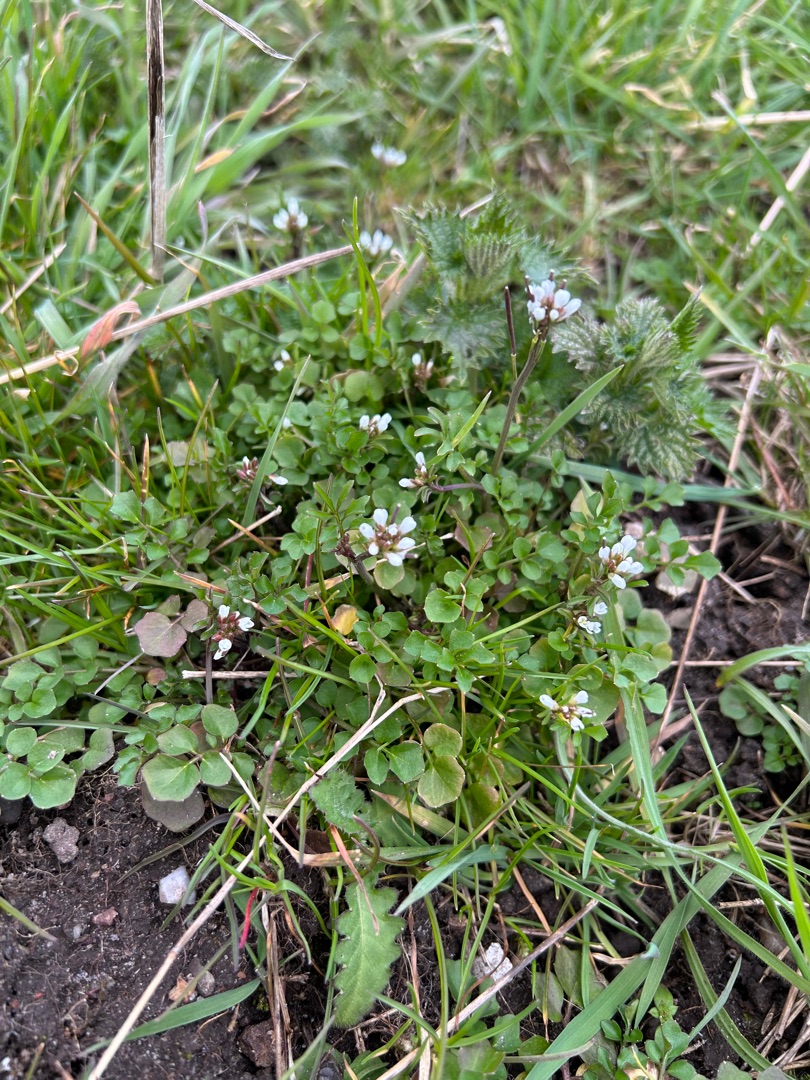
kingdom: Plantae
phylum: Tracheophyta
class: Magnoliopsida
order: Brassicales
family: Brassicaceae
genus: Cardamine
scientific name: Cardamine hirsuta
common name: Roset-springklap
